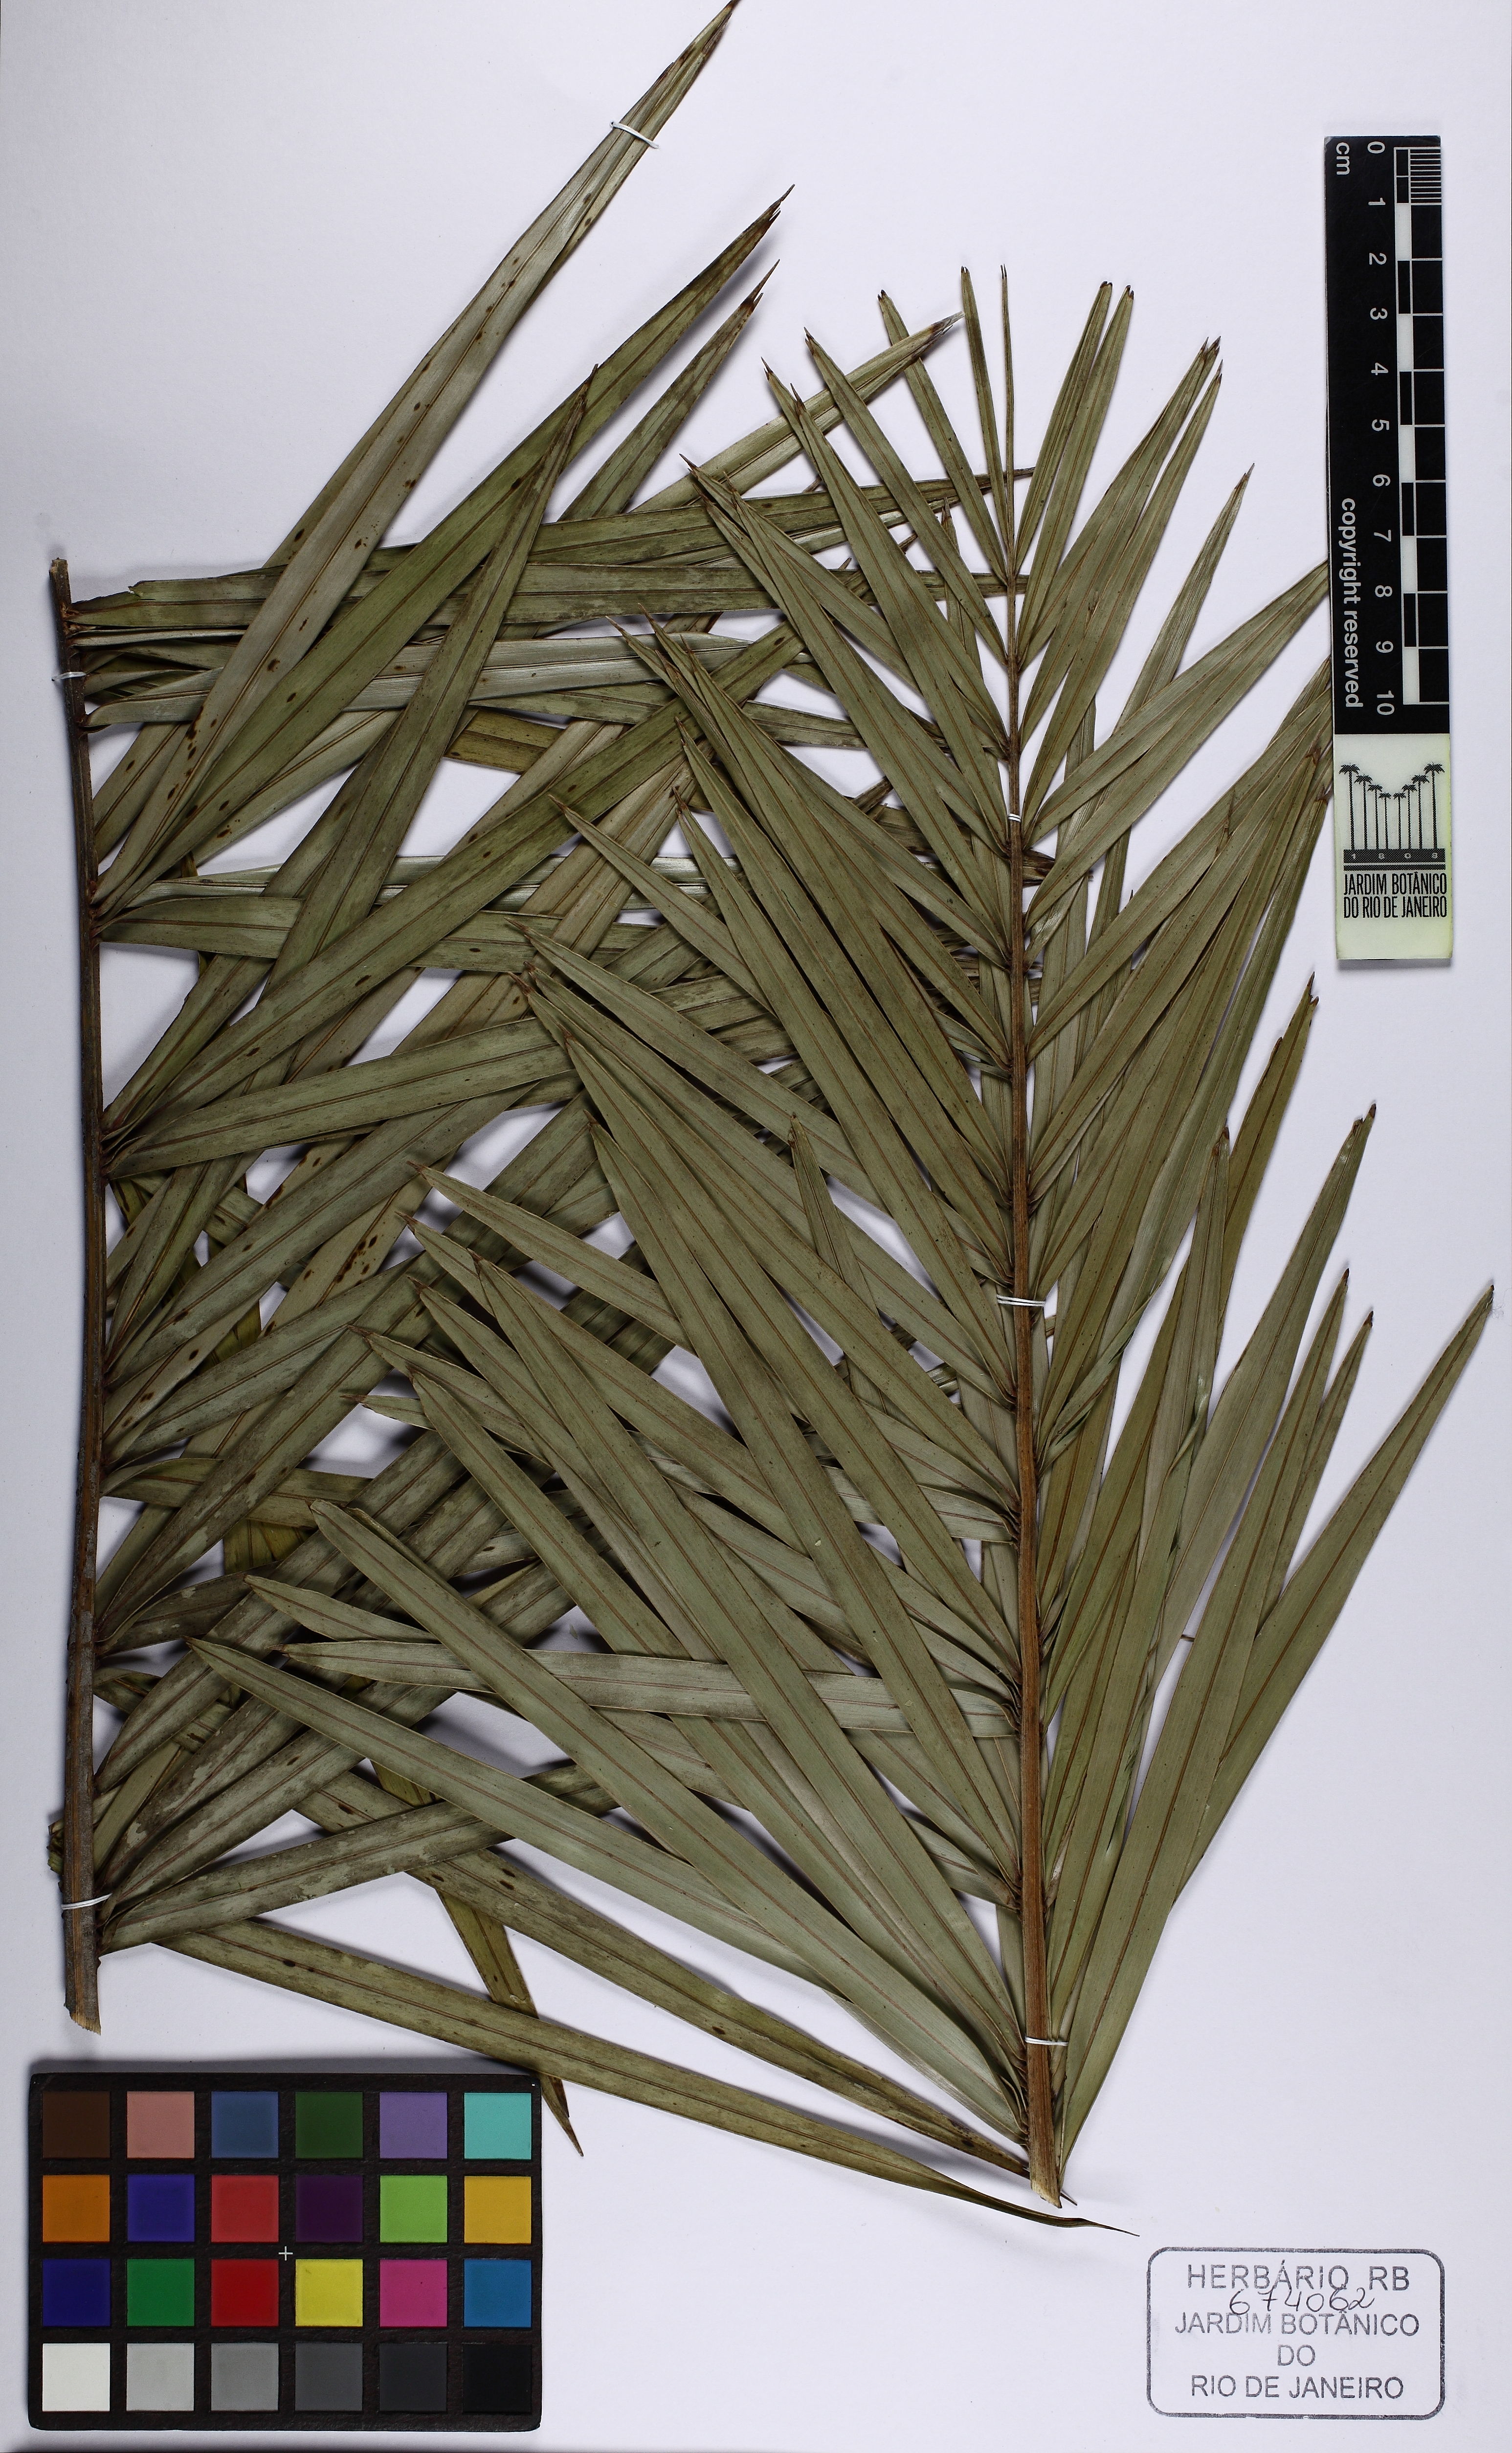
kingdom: Plantae
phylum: Tracheophyta
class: Liliopsida
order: Arecales
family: Arecaceae
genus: Allagoptera
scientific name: Allagoptera campestris
